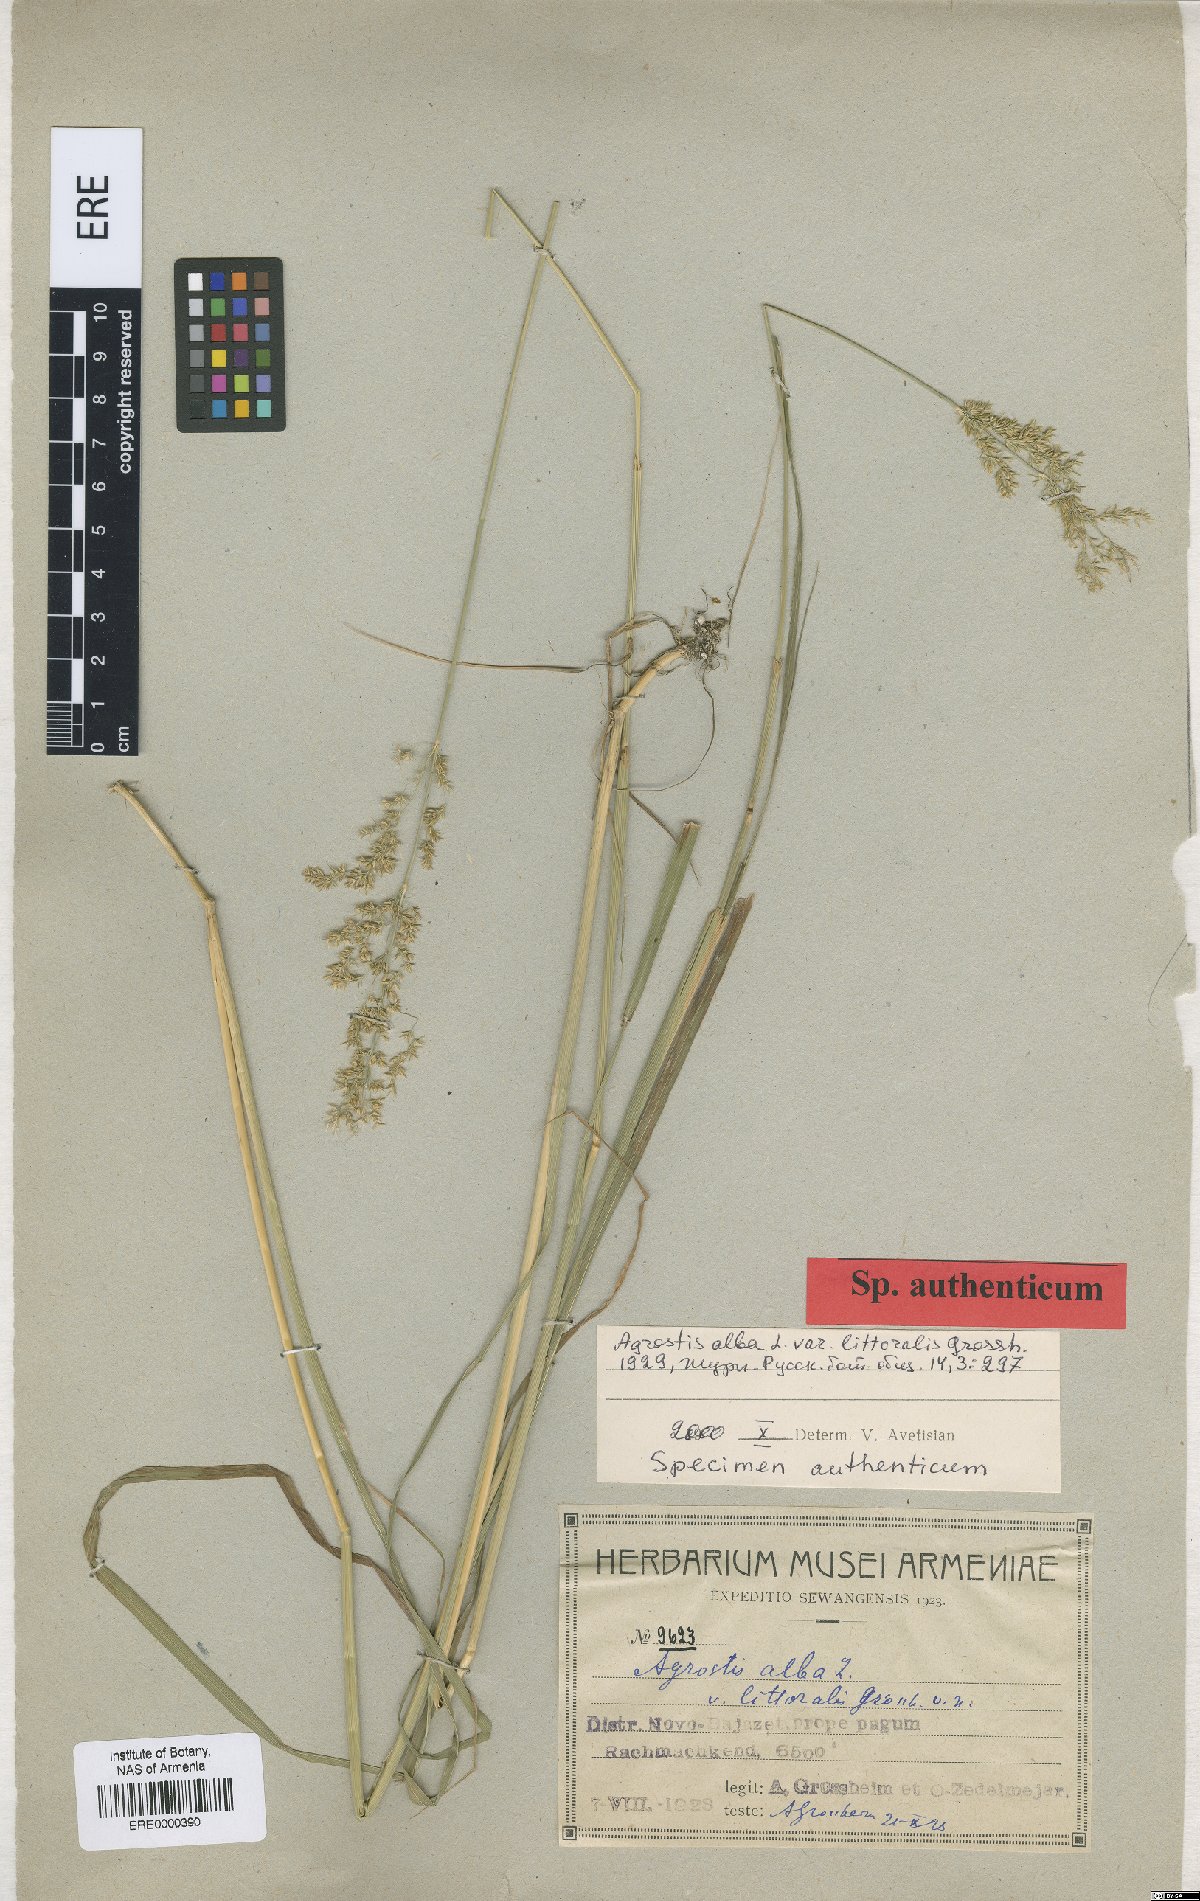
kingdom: Plantae
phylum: Tracheophyta
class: Liliopsida
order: Poales
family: Poaceae
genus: Agrostis
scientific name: Agrostis alba
